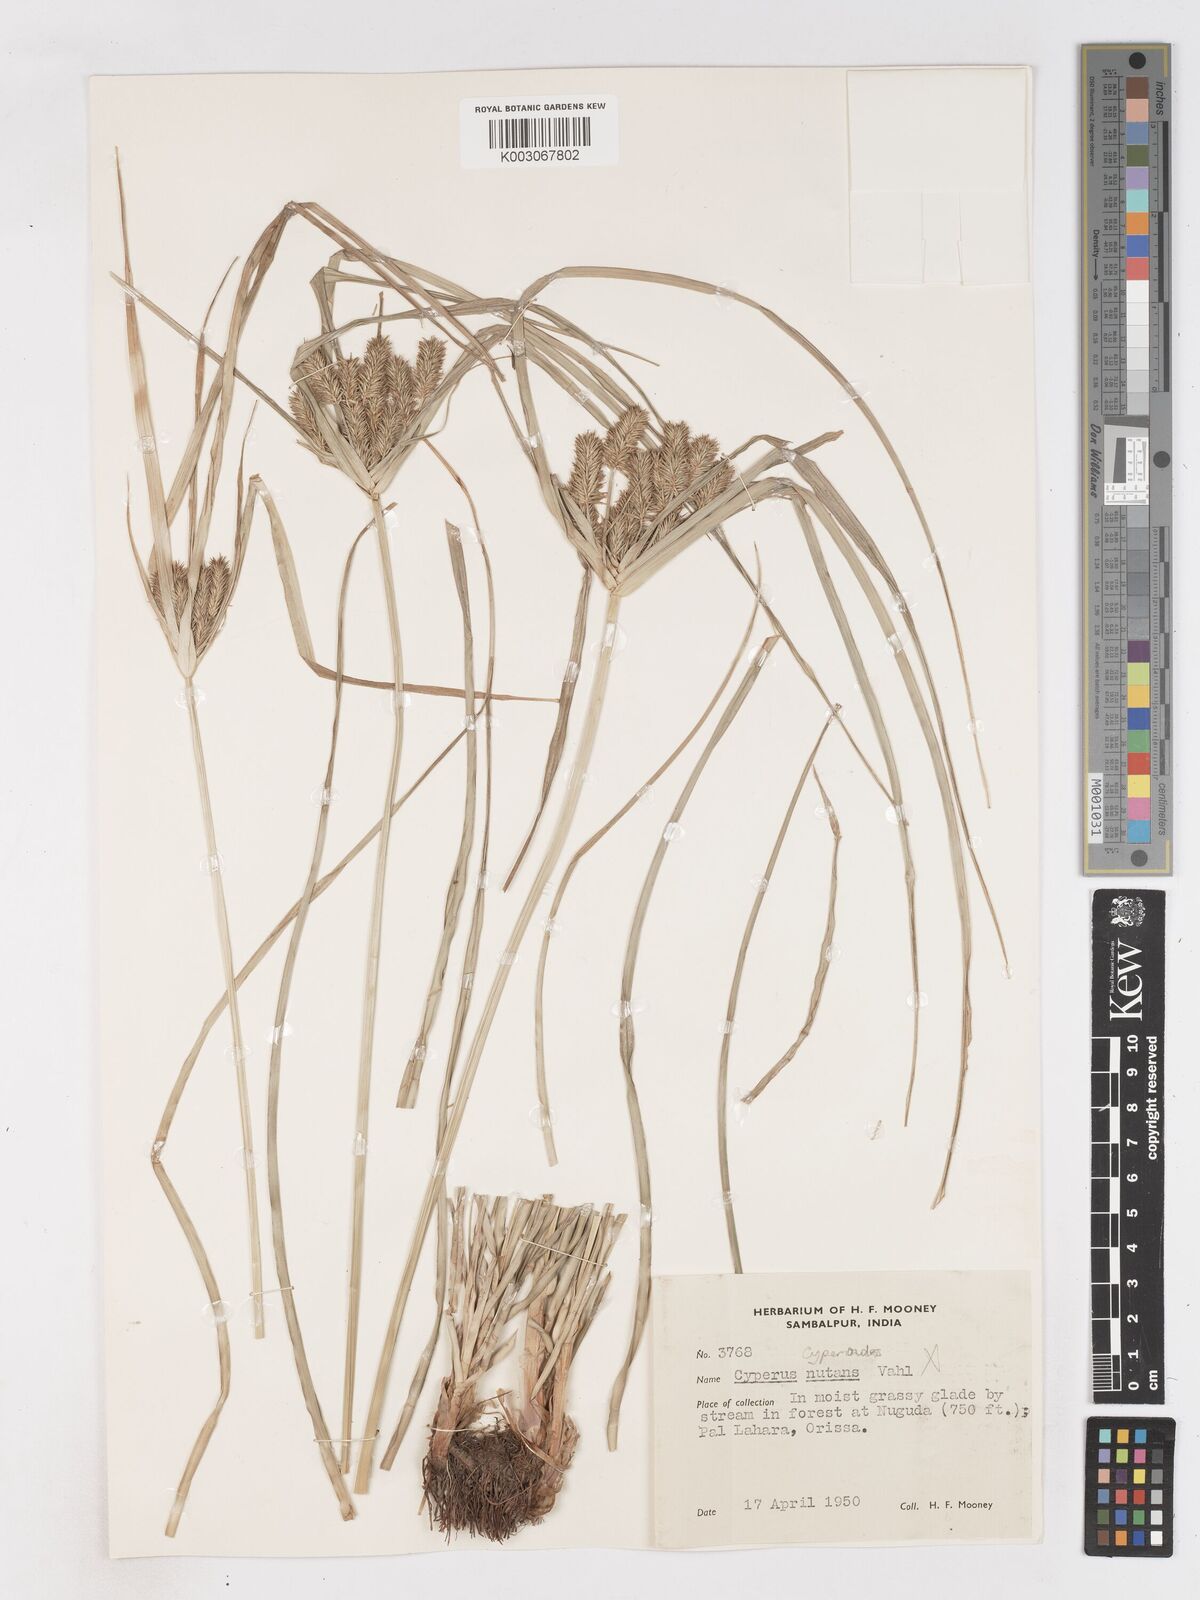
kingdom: Plantae
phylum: Tracheophyta
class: Liliopsida
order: Poales
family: Cyperaceae
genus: Cyperus
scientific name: Cyperus cyperoides
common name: Pacific island flat sedge
